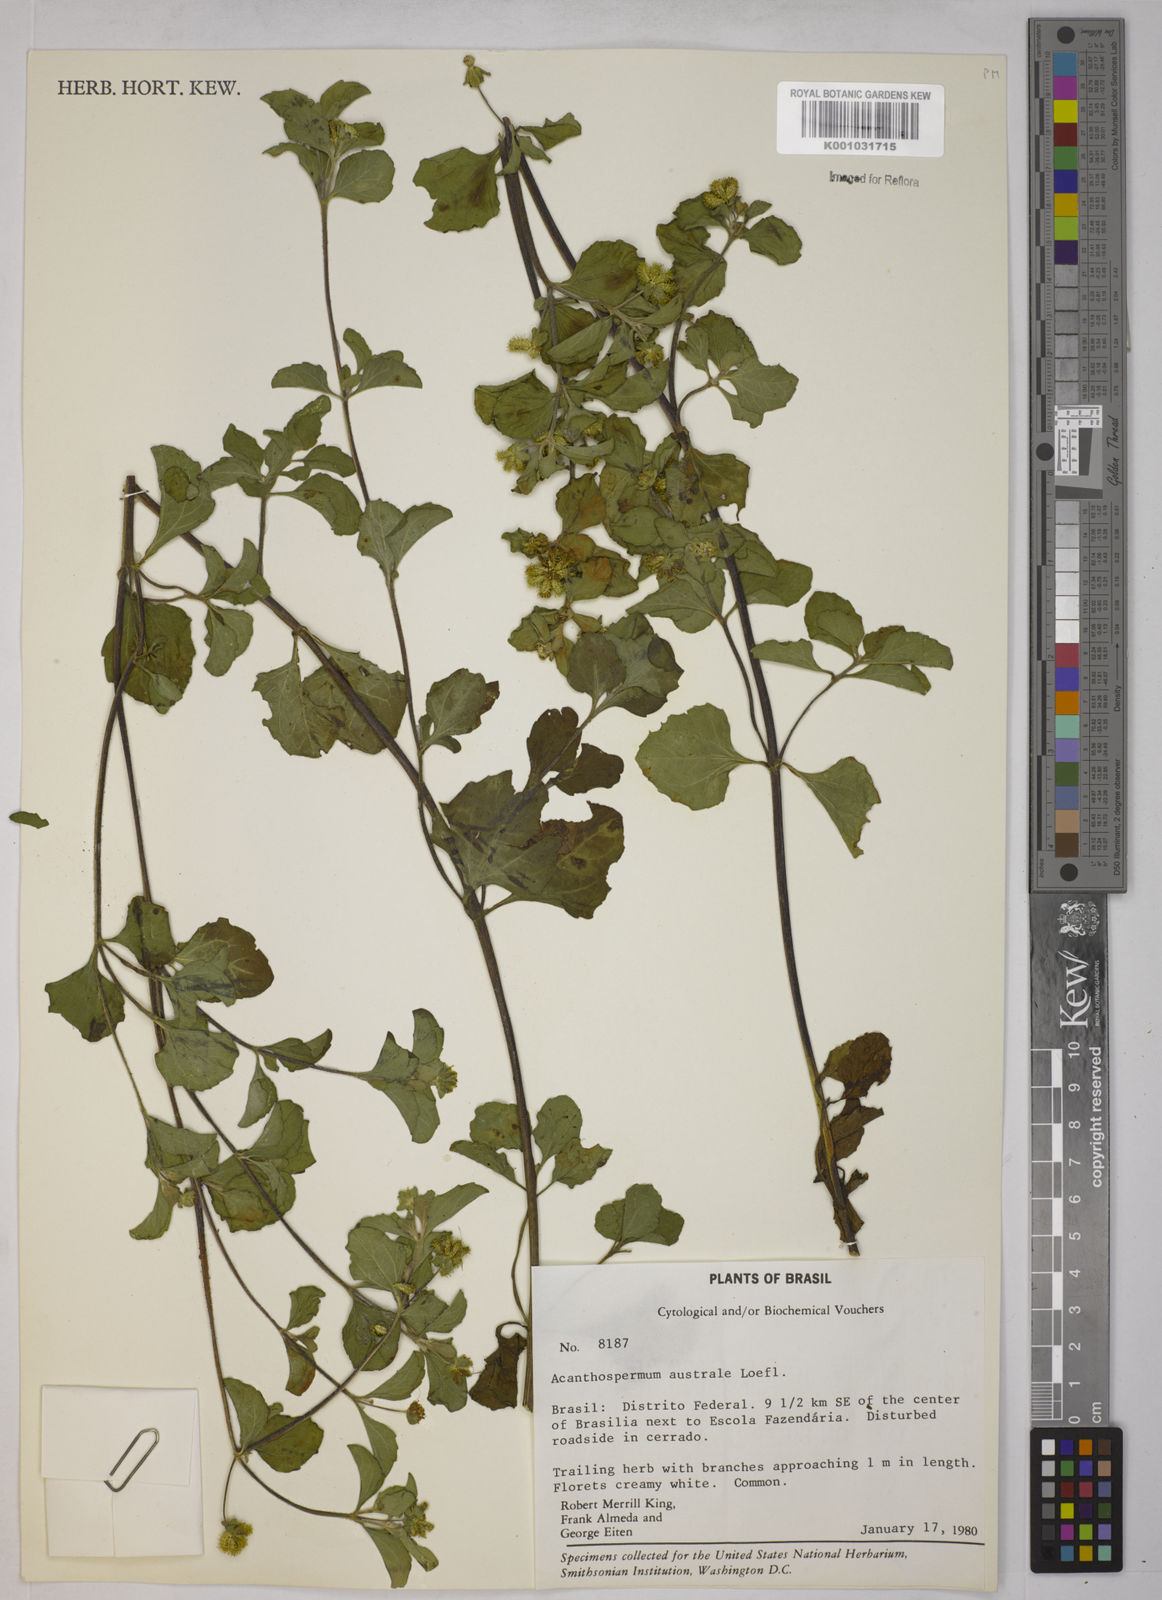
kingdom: Plantae
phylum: Tracheophyta
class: Magnoliopsida
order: Asterales
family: Asteraceae
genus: Acanthospermum
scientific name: Acanthospermum australe
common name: Paraguayan starbur
